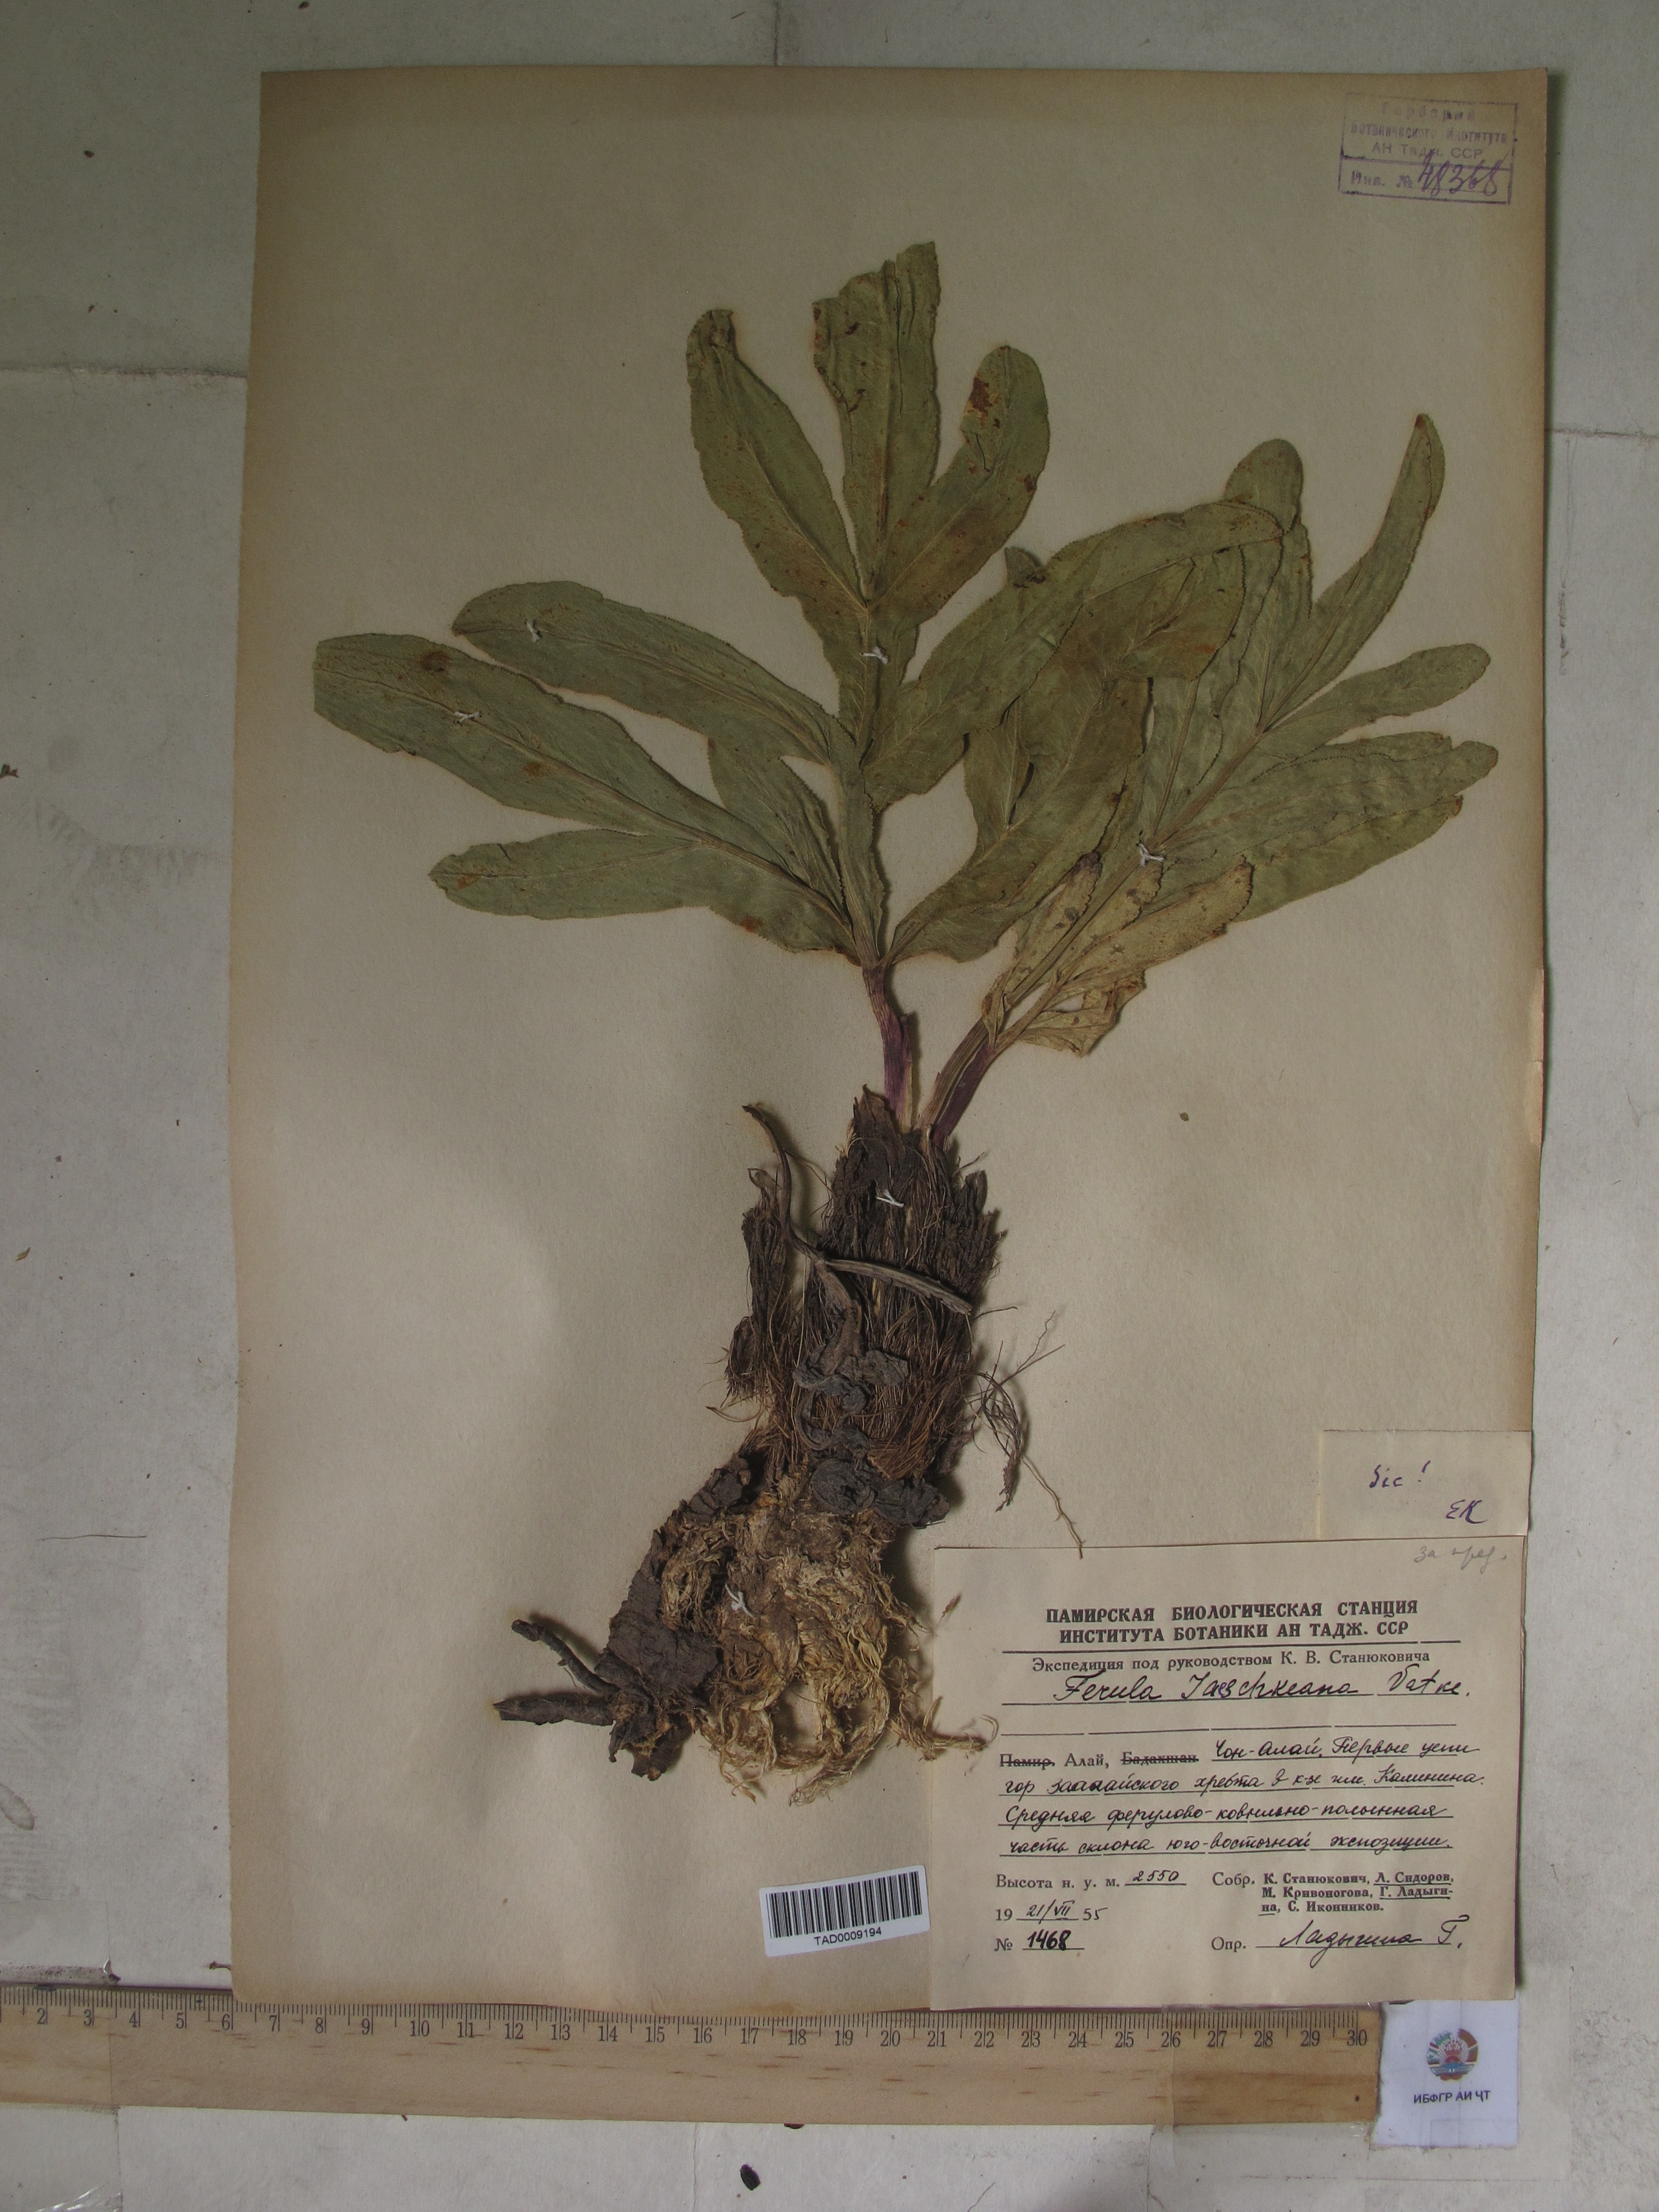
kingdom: Plantae
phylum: Tracheophyta
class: Magnoliopsida
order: Apiales
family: Apiaceae
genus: Ferula
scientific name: Ferula jaeschkeana
